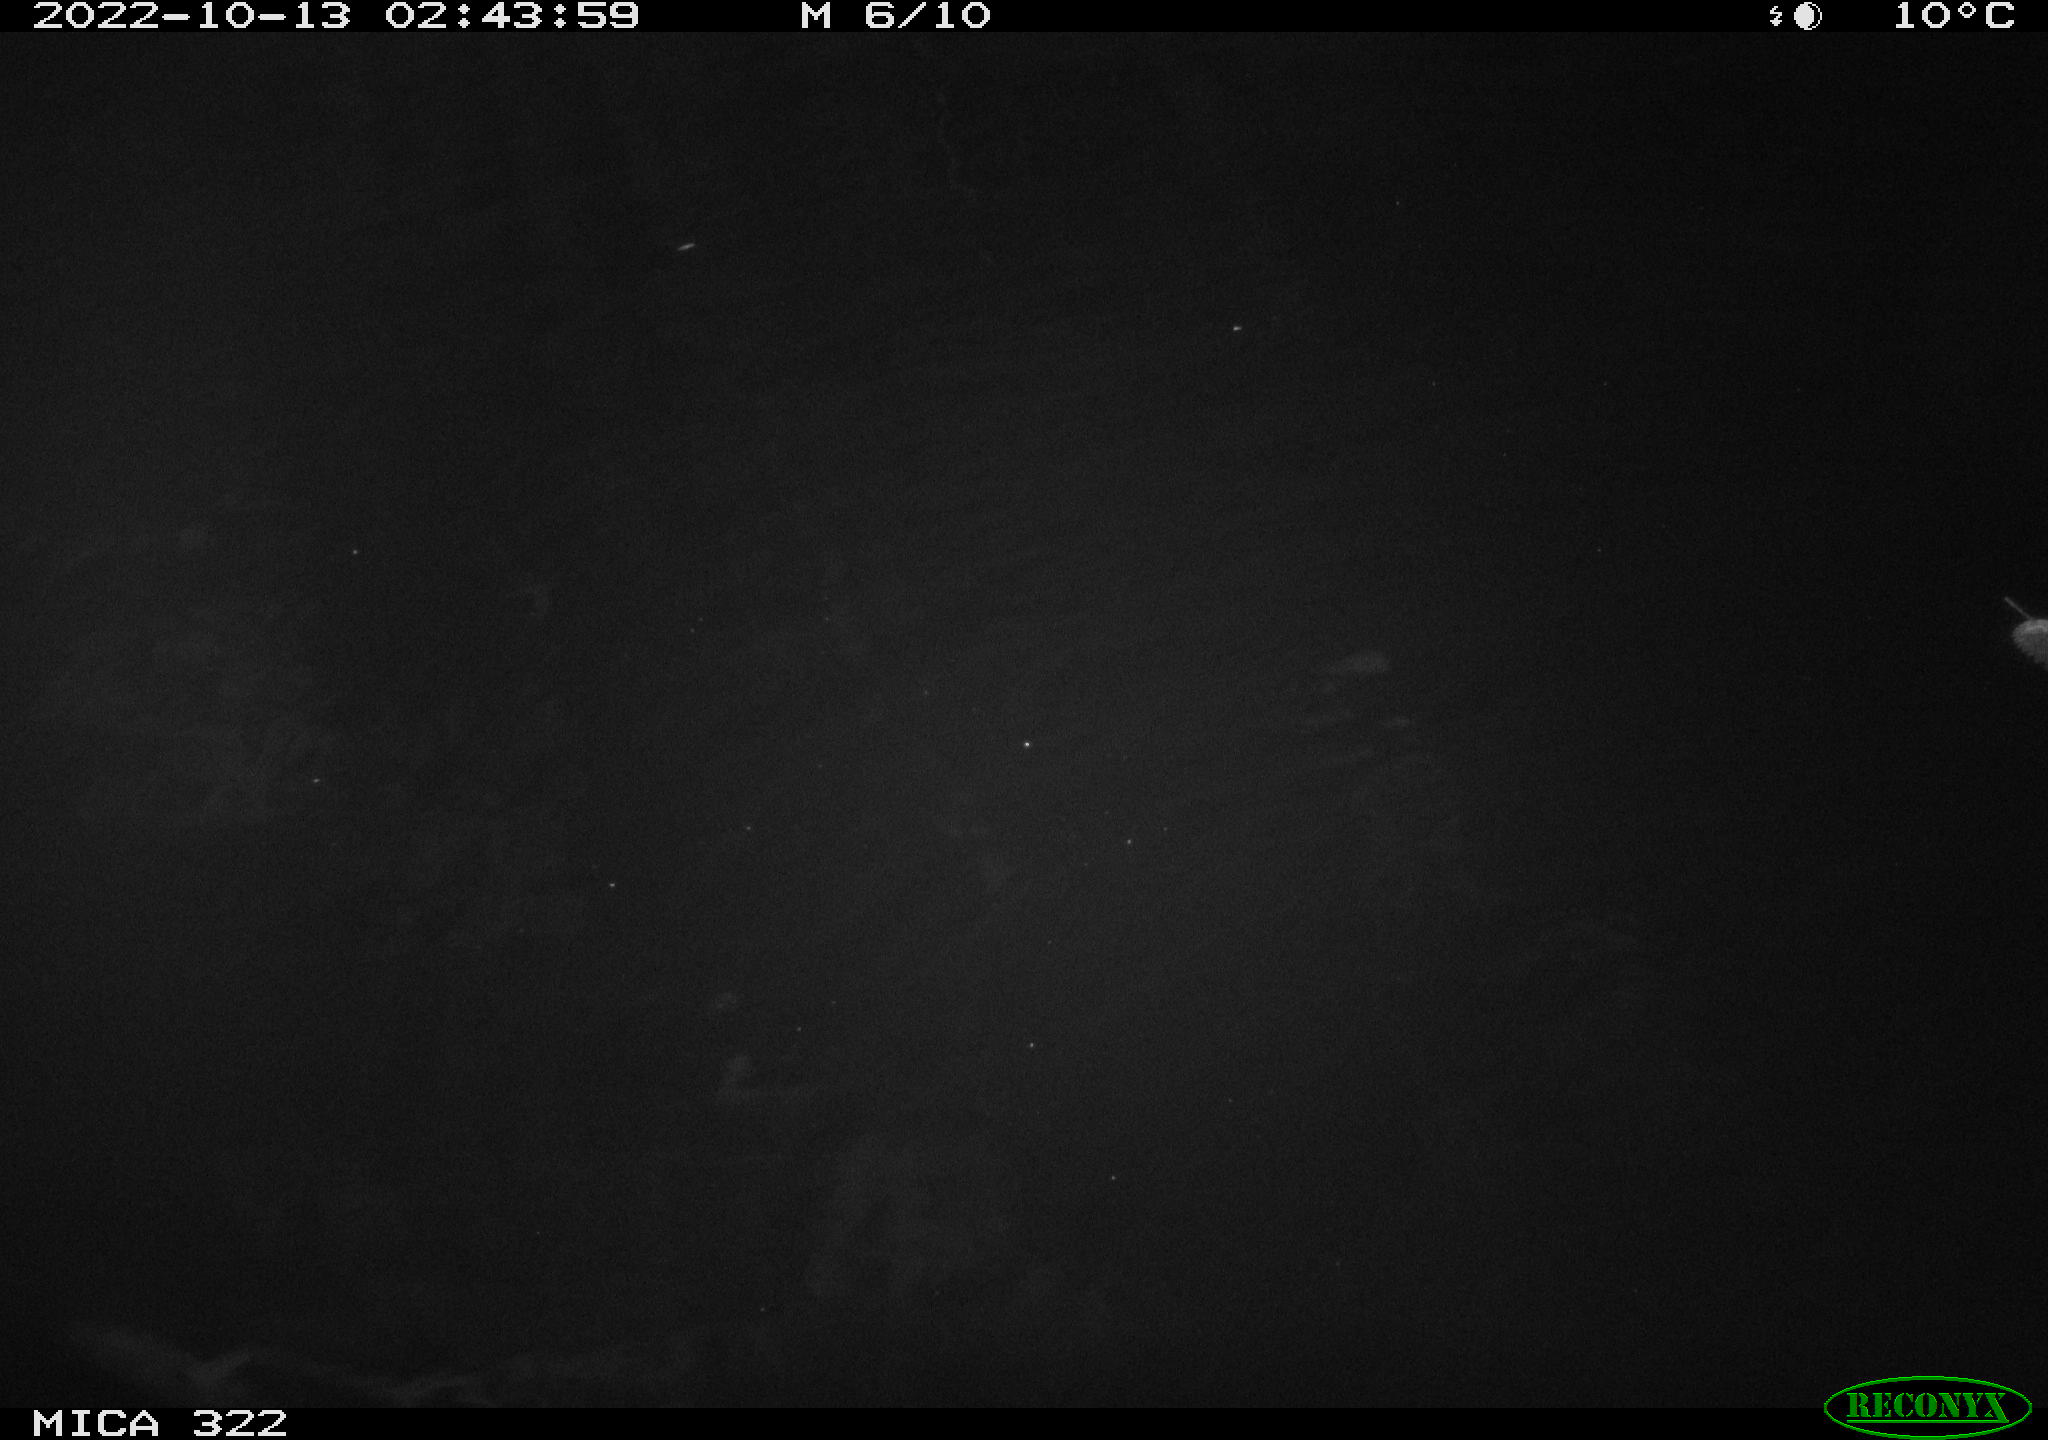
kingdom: Animalia
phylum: Chordata
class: Mammalia
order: Rodentia
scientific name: Rodentia
